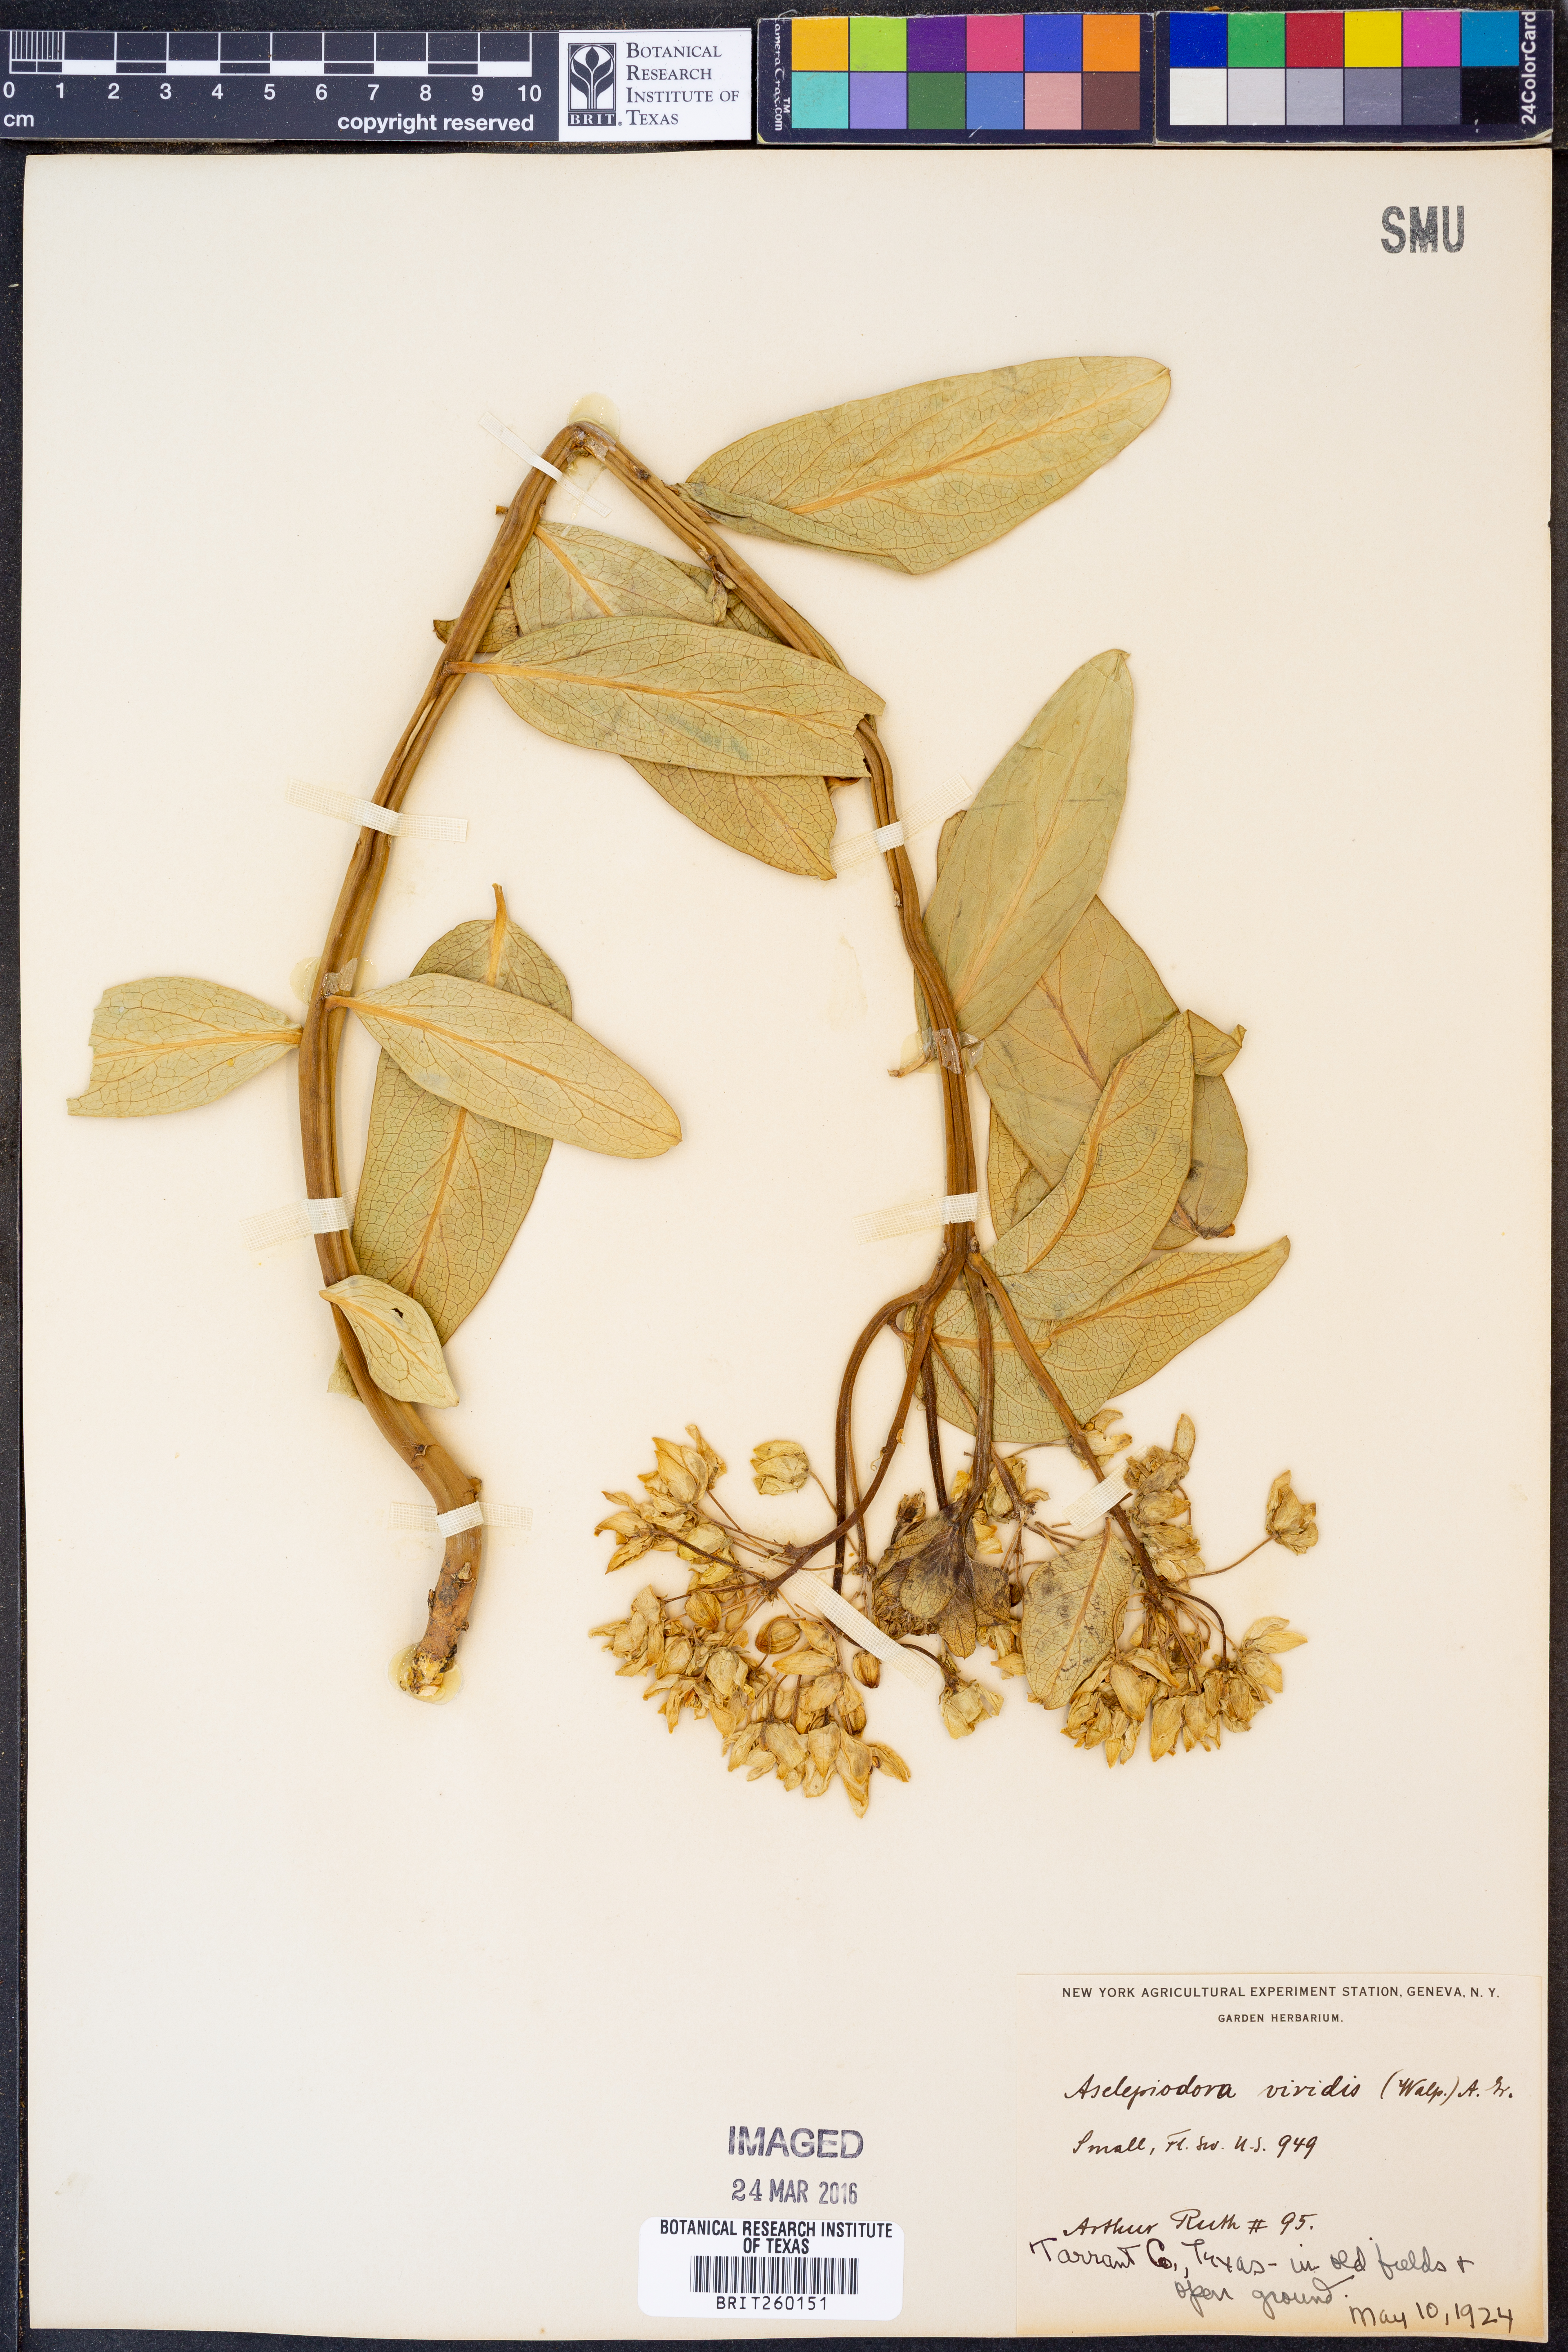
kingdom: Plantae
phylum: Tracheophyta
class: Magnoliopsida
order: Gentianales
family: Apocynaceae
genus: Asclepias
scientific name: Asclepias viridis
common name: Antelope-horns
